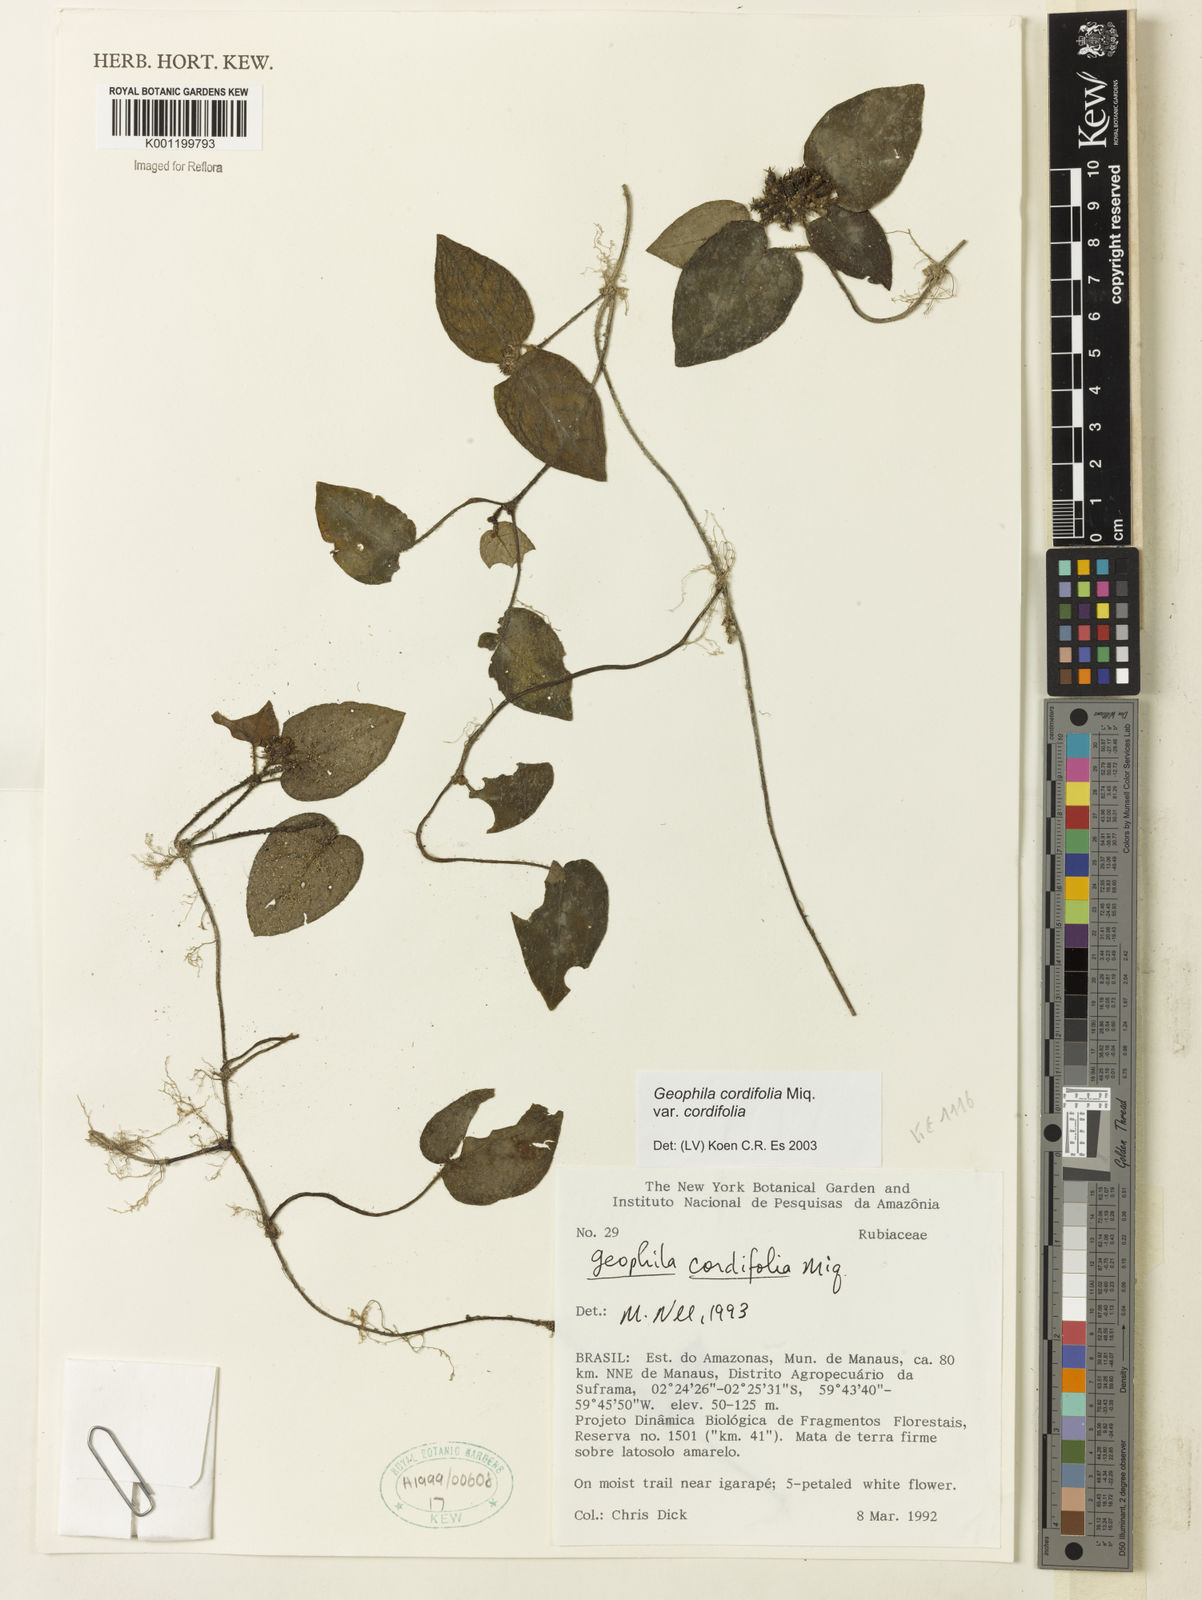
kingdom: Plantae
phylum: Tracheophyta
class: Magnoliopsida
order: Gentianales
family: Rubiaceae
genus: Geophila
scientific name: Geophila cordifolia
